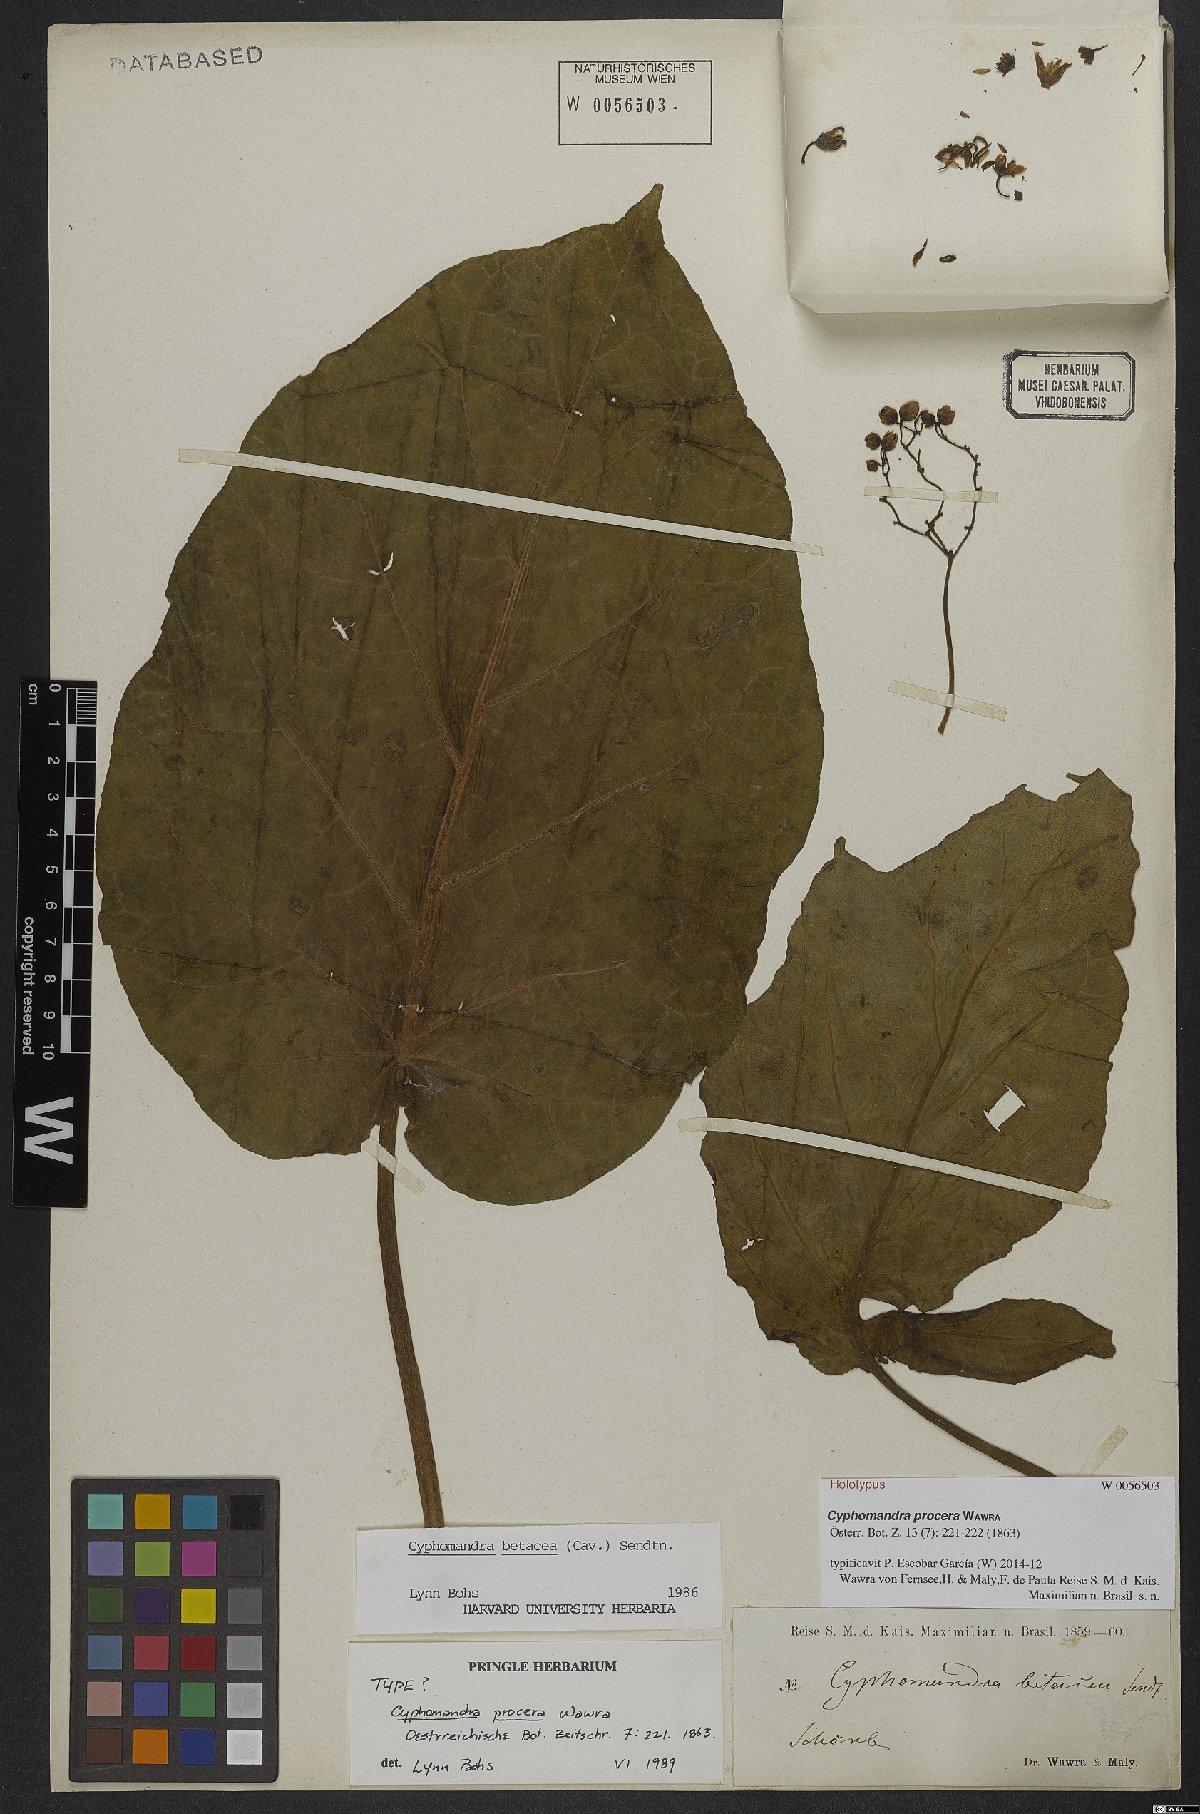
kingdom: Plantae
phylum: Tracheophyta
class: Magnoliopsida
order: Solanales
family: Solanaceae
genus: Solanum
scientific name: Solanum betaceum
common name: Tamarillo
